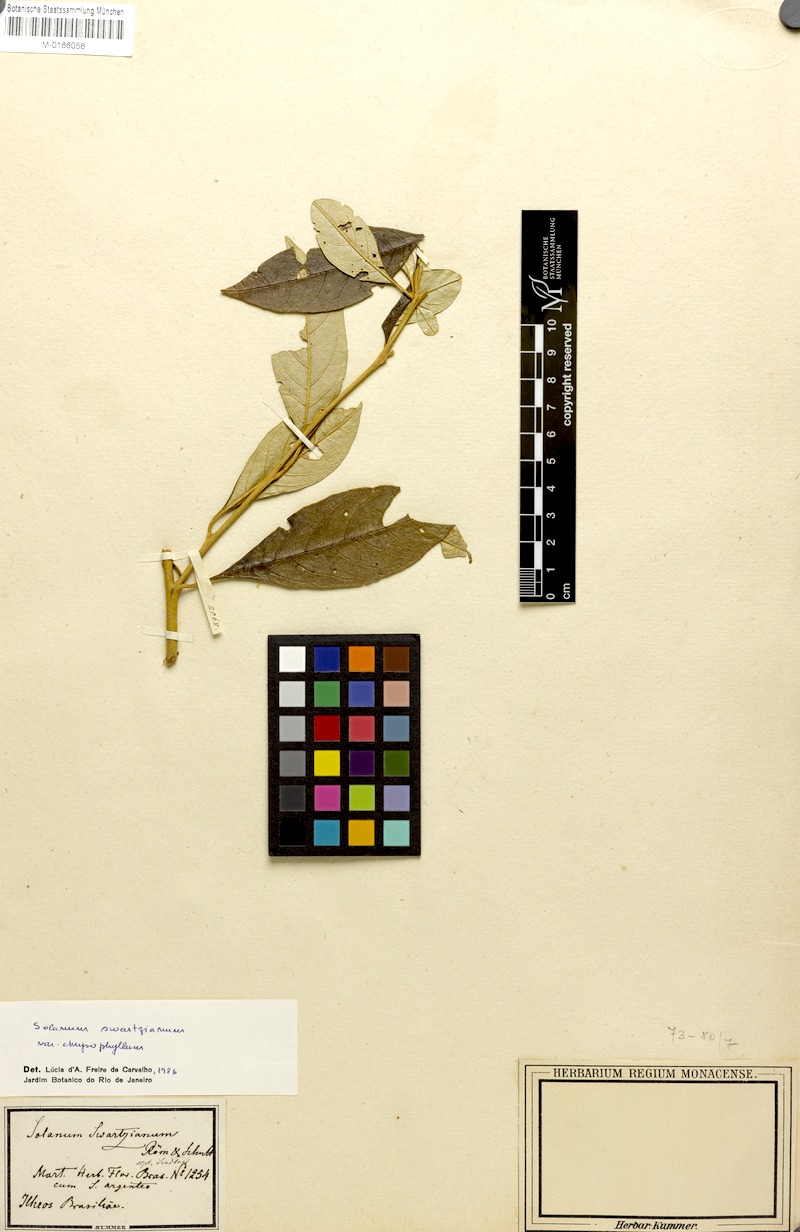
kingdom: Plantae
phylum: Tracheophyta
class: Magnoliopsida
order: Solanales
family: Solanaceae
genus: Solanum
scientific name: Solanum swartzianum
